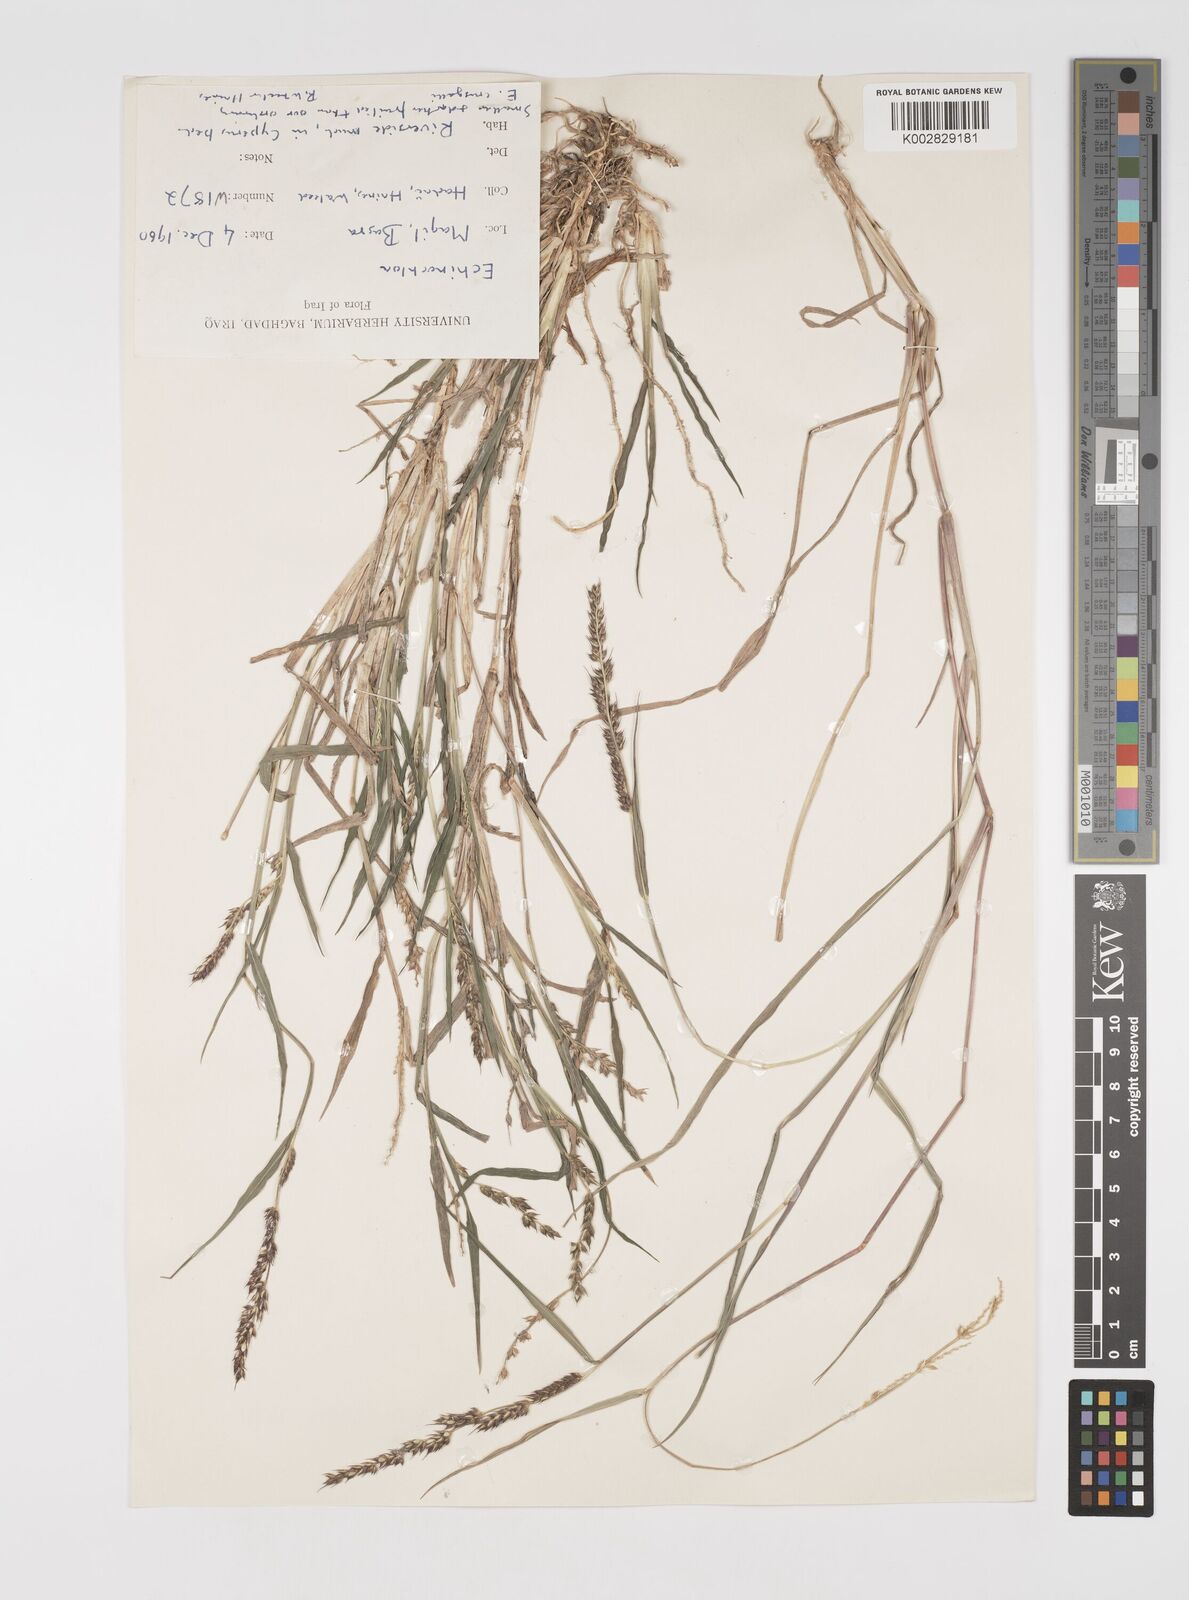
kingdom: Plantae
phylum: Tracheophyta
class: Liliopsida
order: Poales
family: Poaceae
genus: Echinochloa
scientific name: Echinochloa crus-galli
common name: Cockspur
